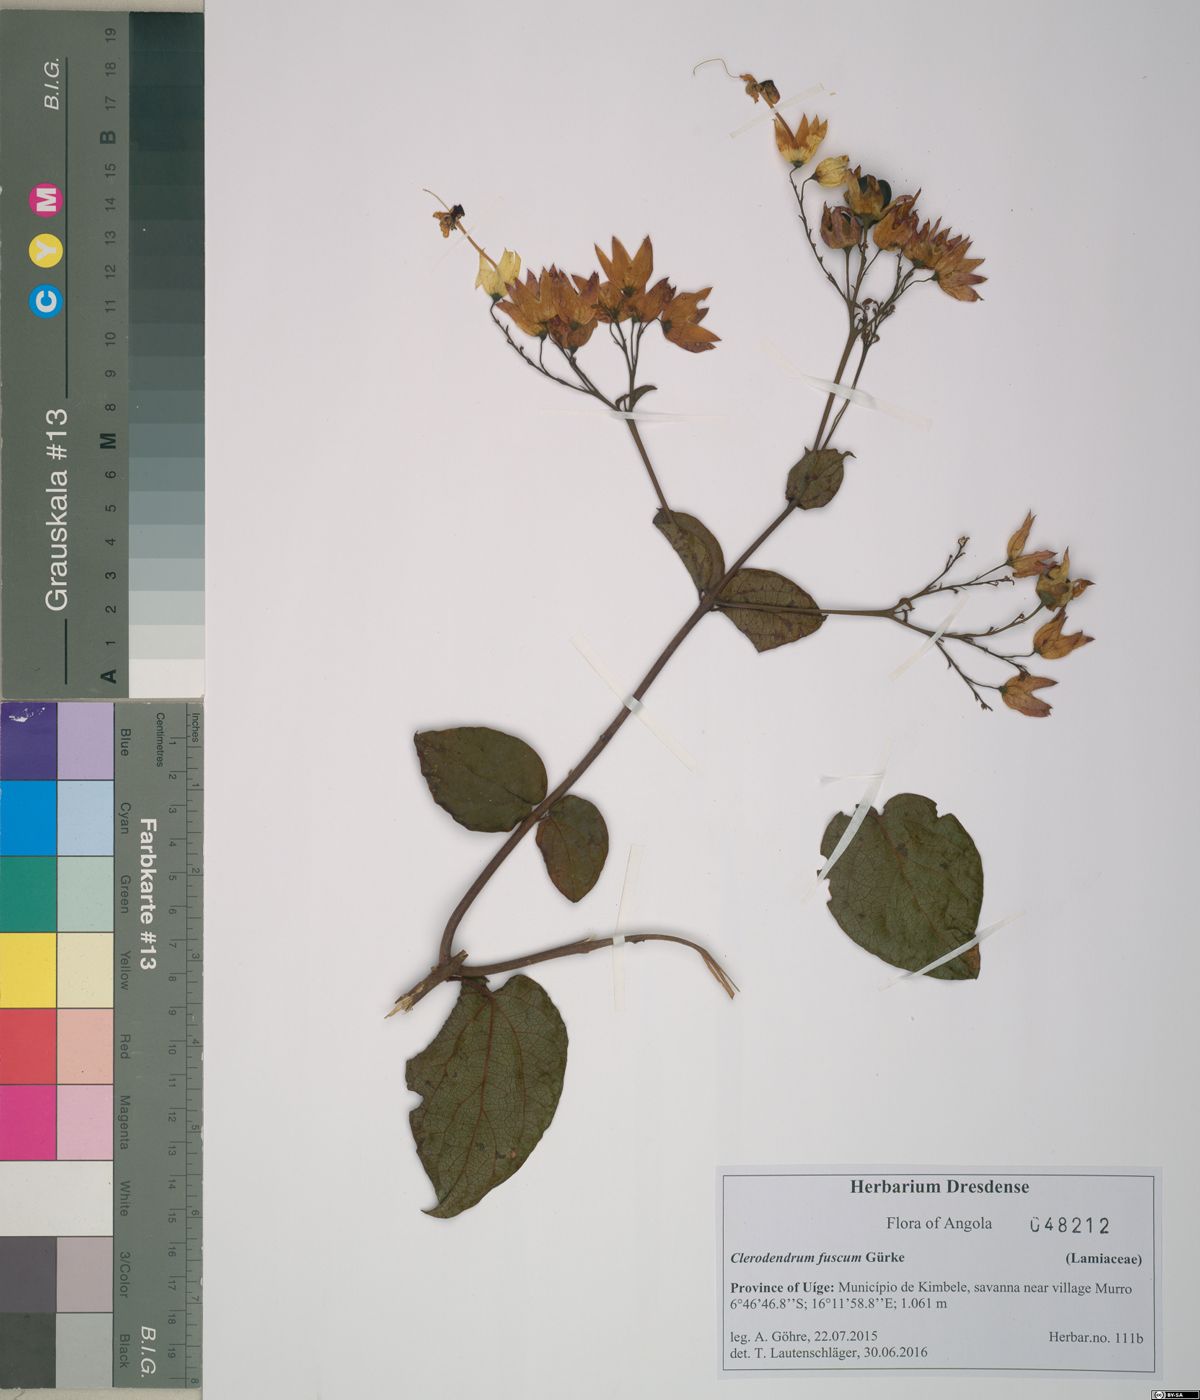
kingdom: Plantae
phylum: Tracheophyta
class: Magnoliopsida
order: Lamiales
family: Lamiaceae
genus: Clerodendrum
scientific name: Clerodendrum fuscum
